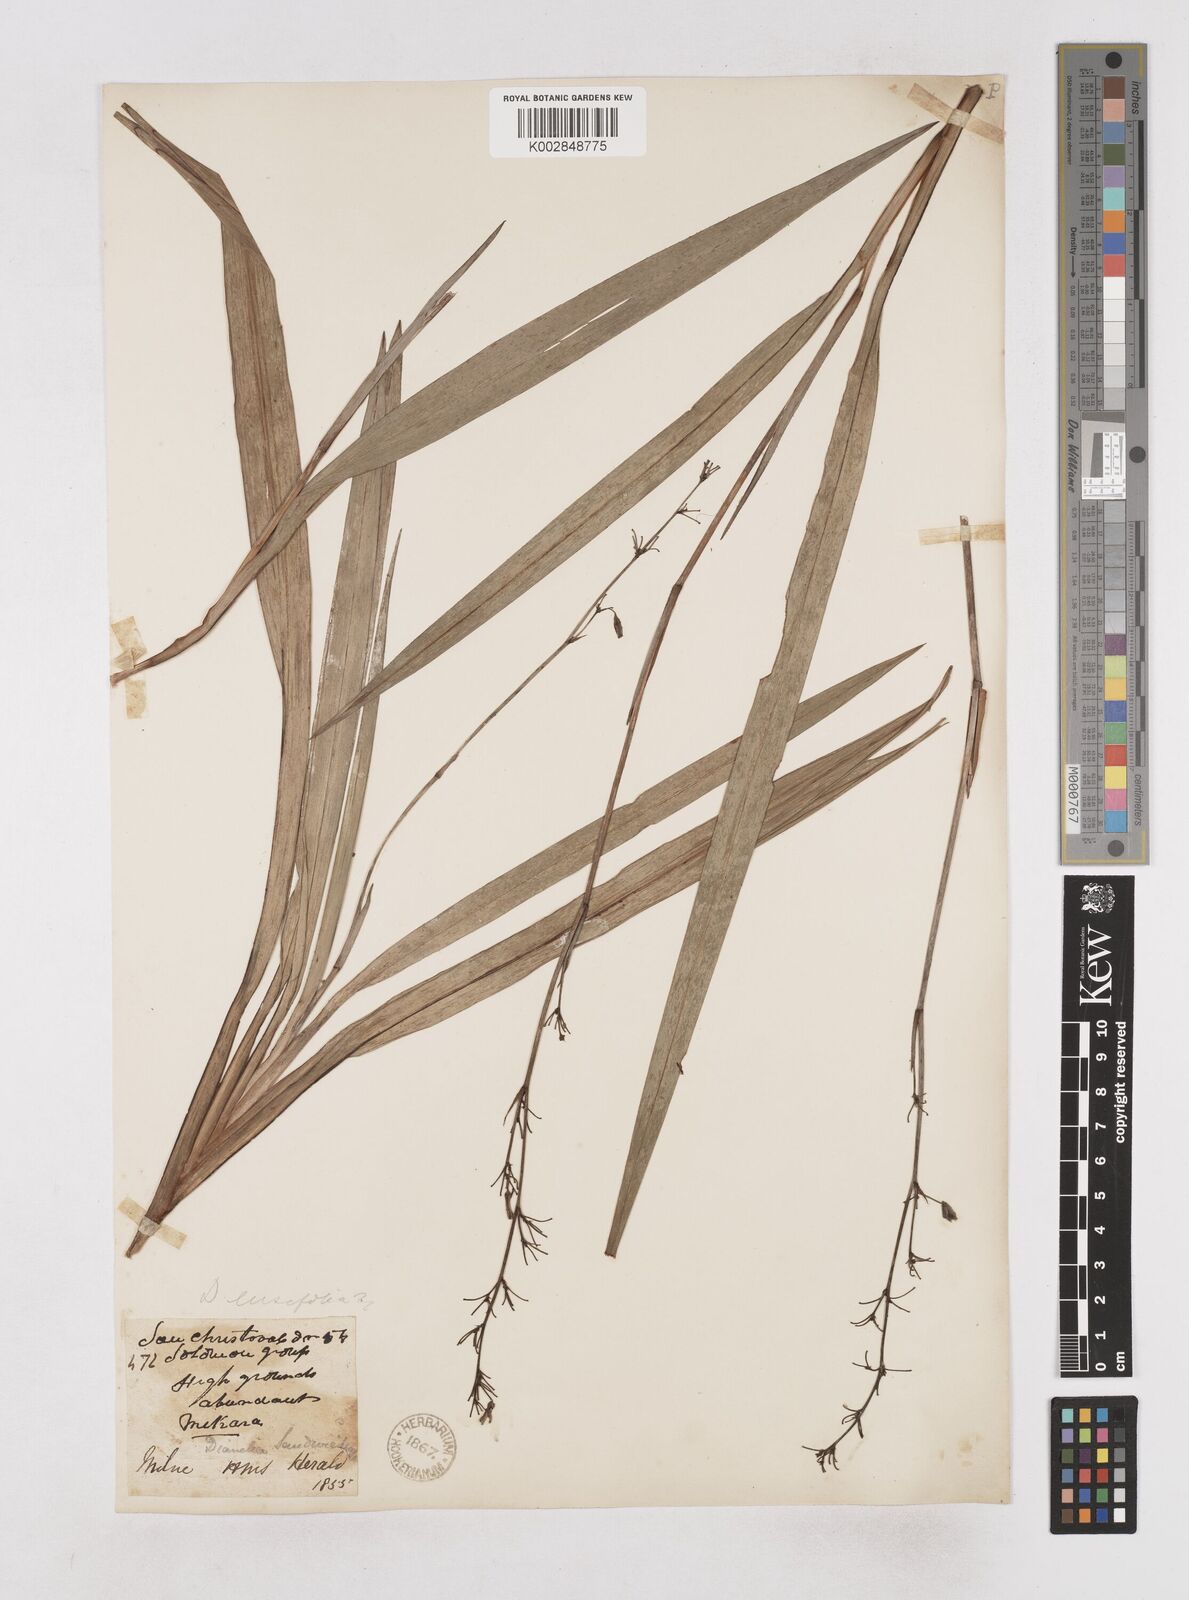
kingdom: Plantae
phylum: Tracheophyta
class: Liliopsida
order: Asparagales
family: Asphodelaceae
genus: Dianella
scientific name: Dianella ensifolia
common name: New zealand lilyplant
